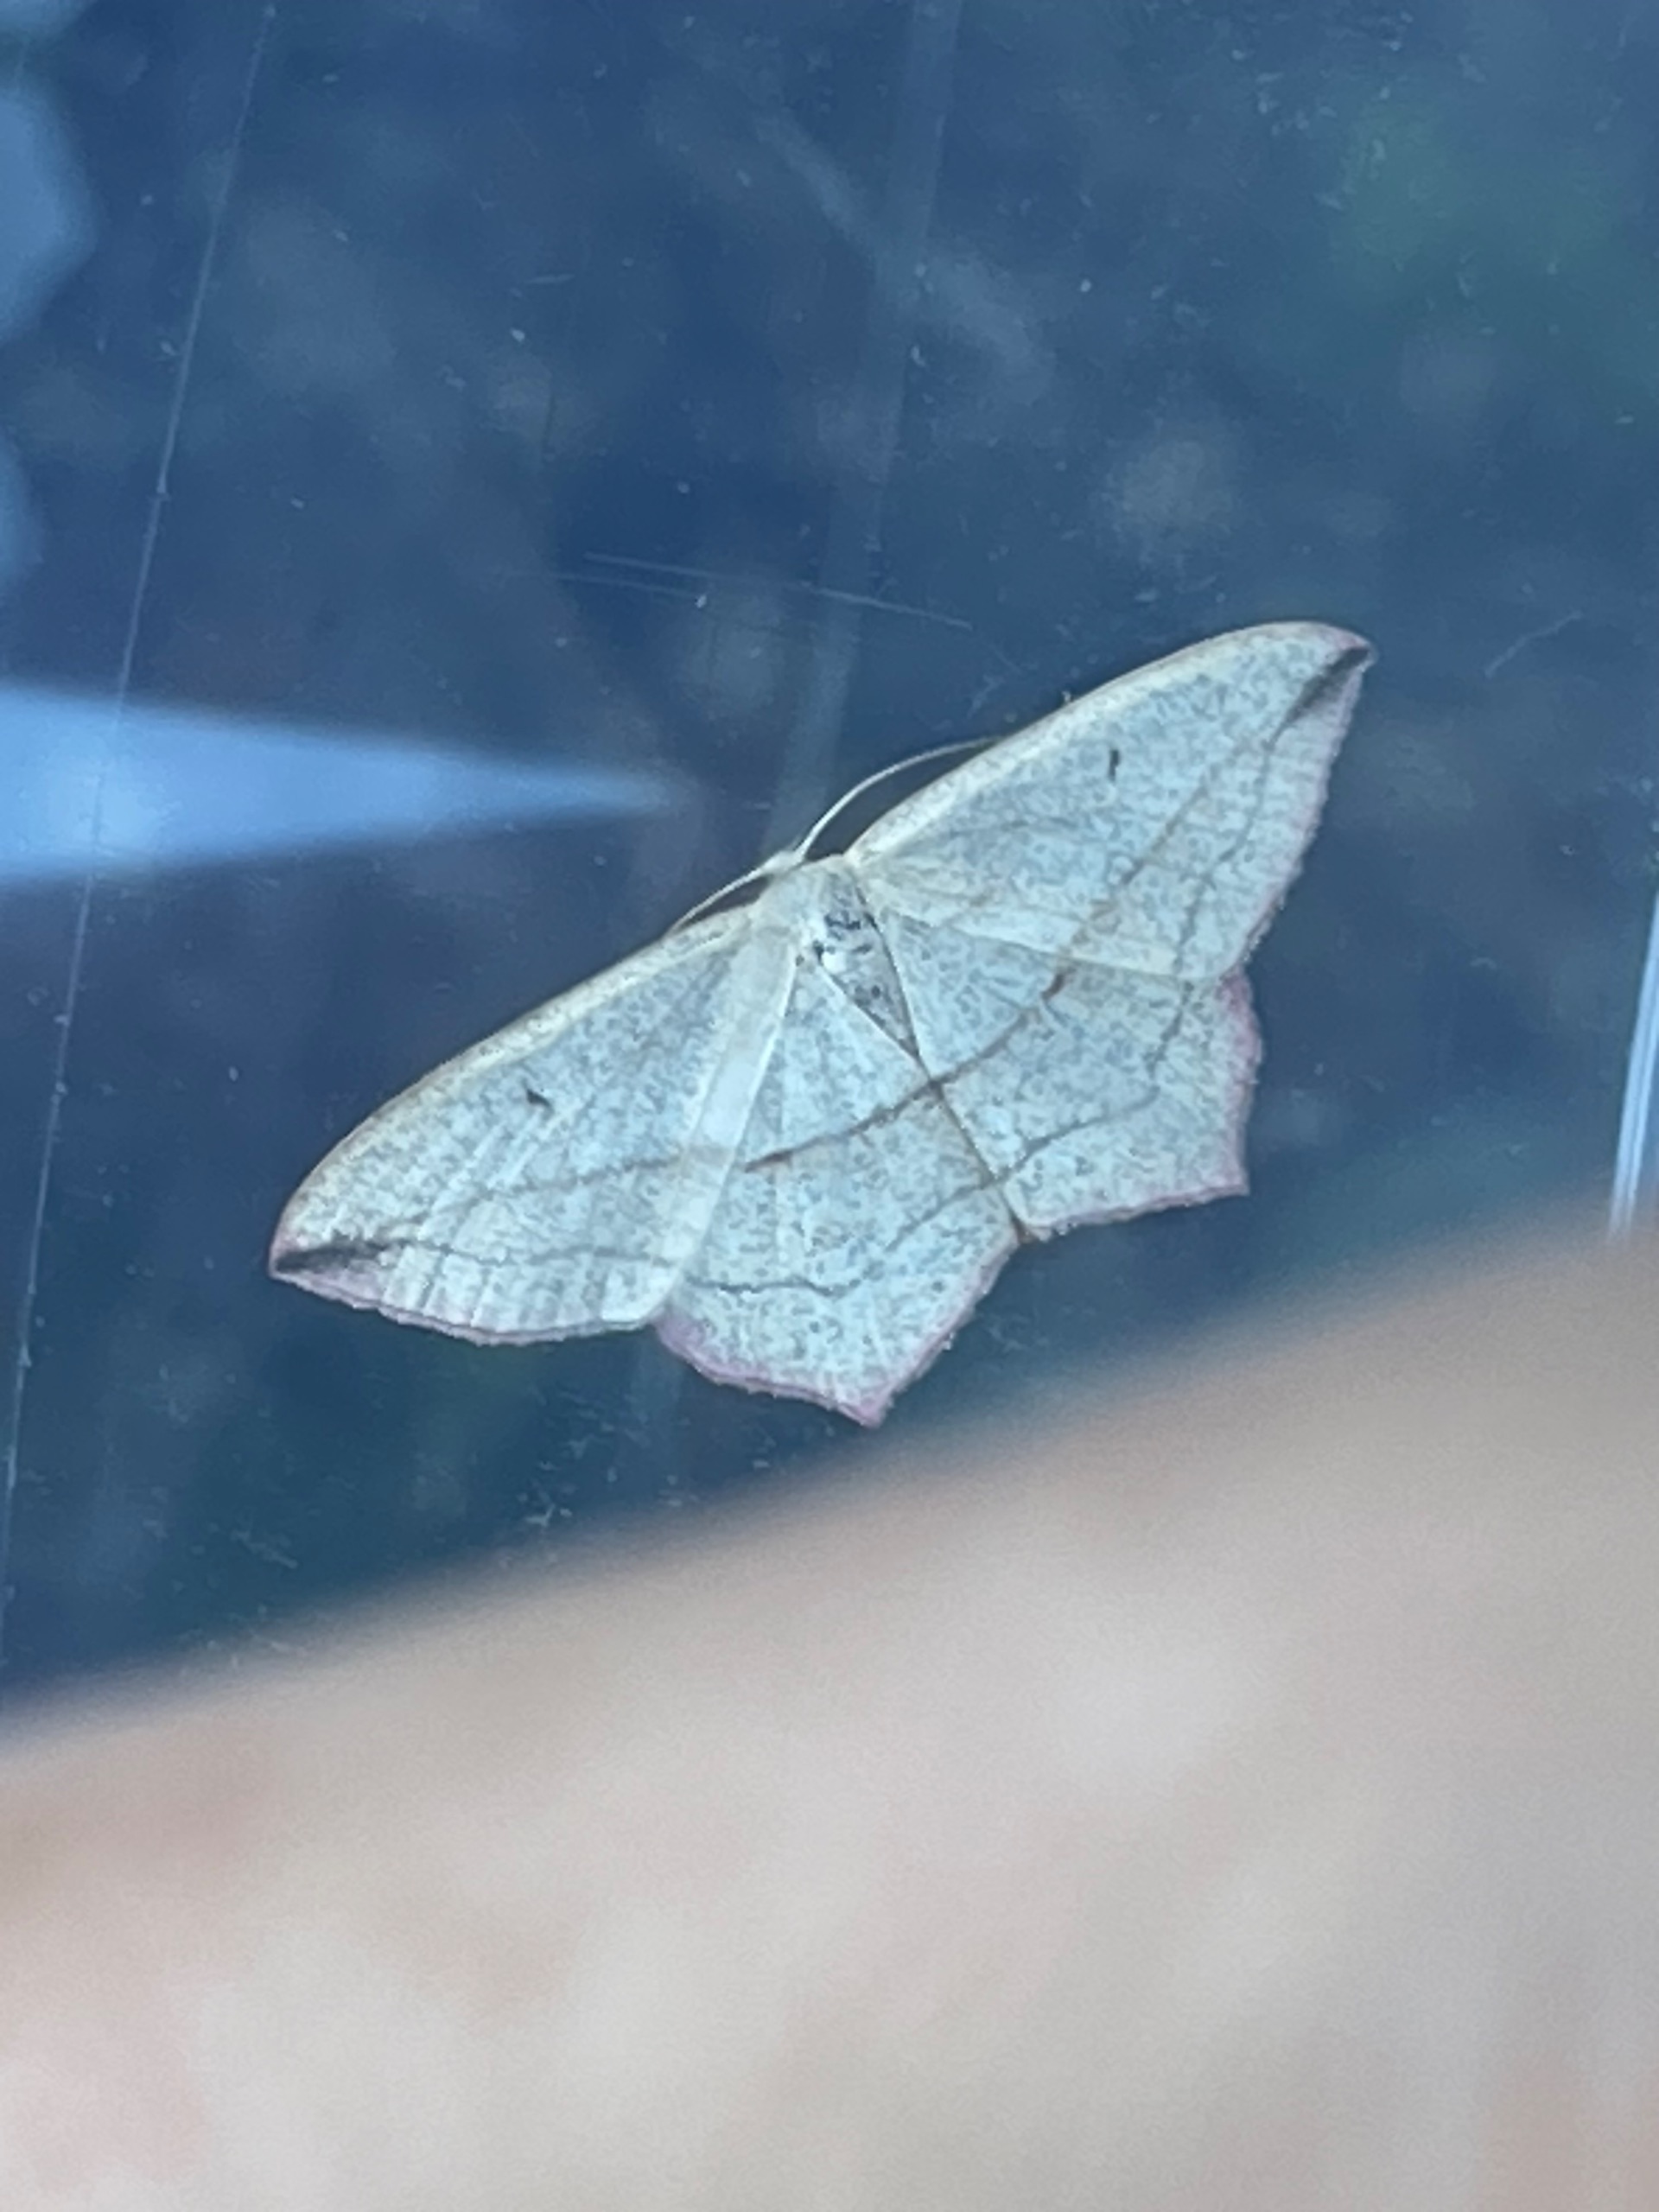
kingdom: Animalia
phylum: Arthropoda
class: Insecta
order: Lepidoptera
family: Geometridae
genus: Timandra
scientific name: Timandra comae
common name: Gul syremåler
